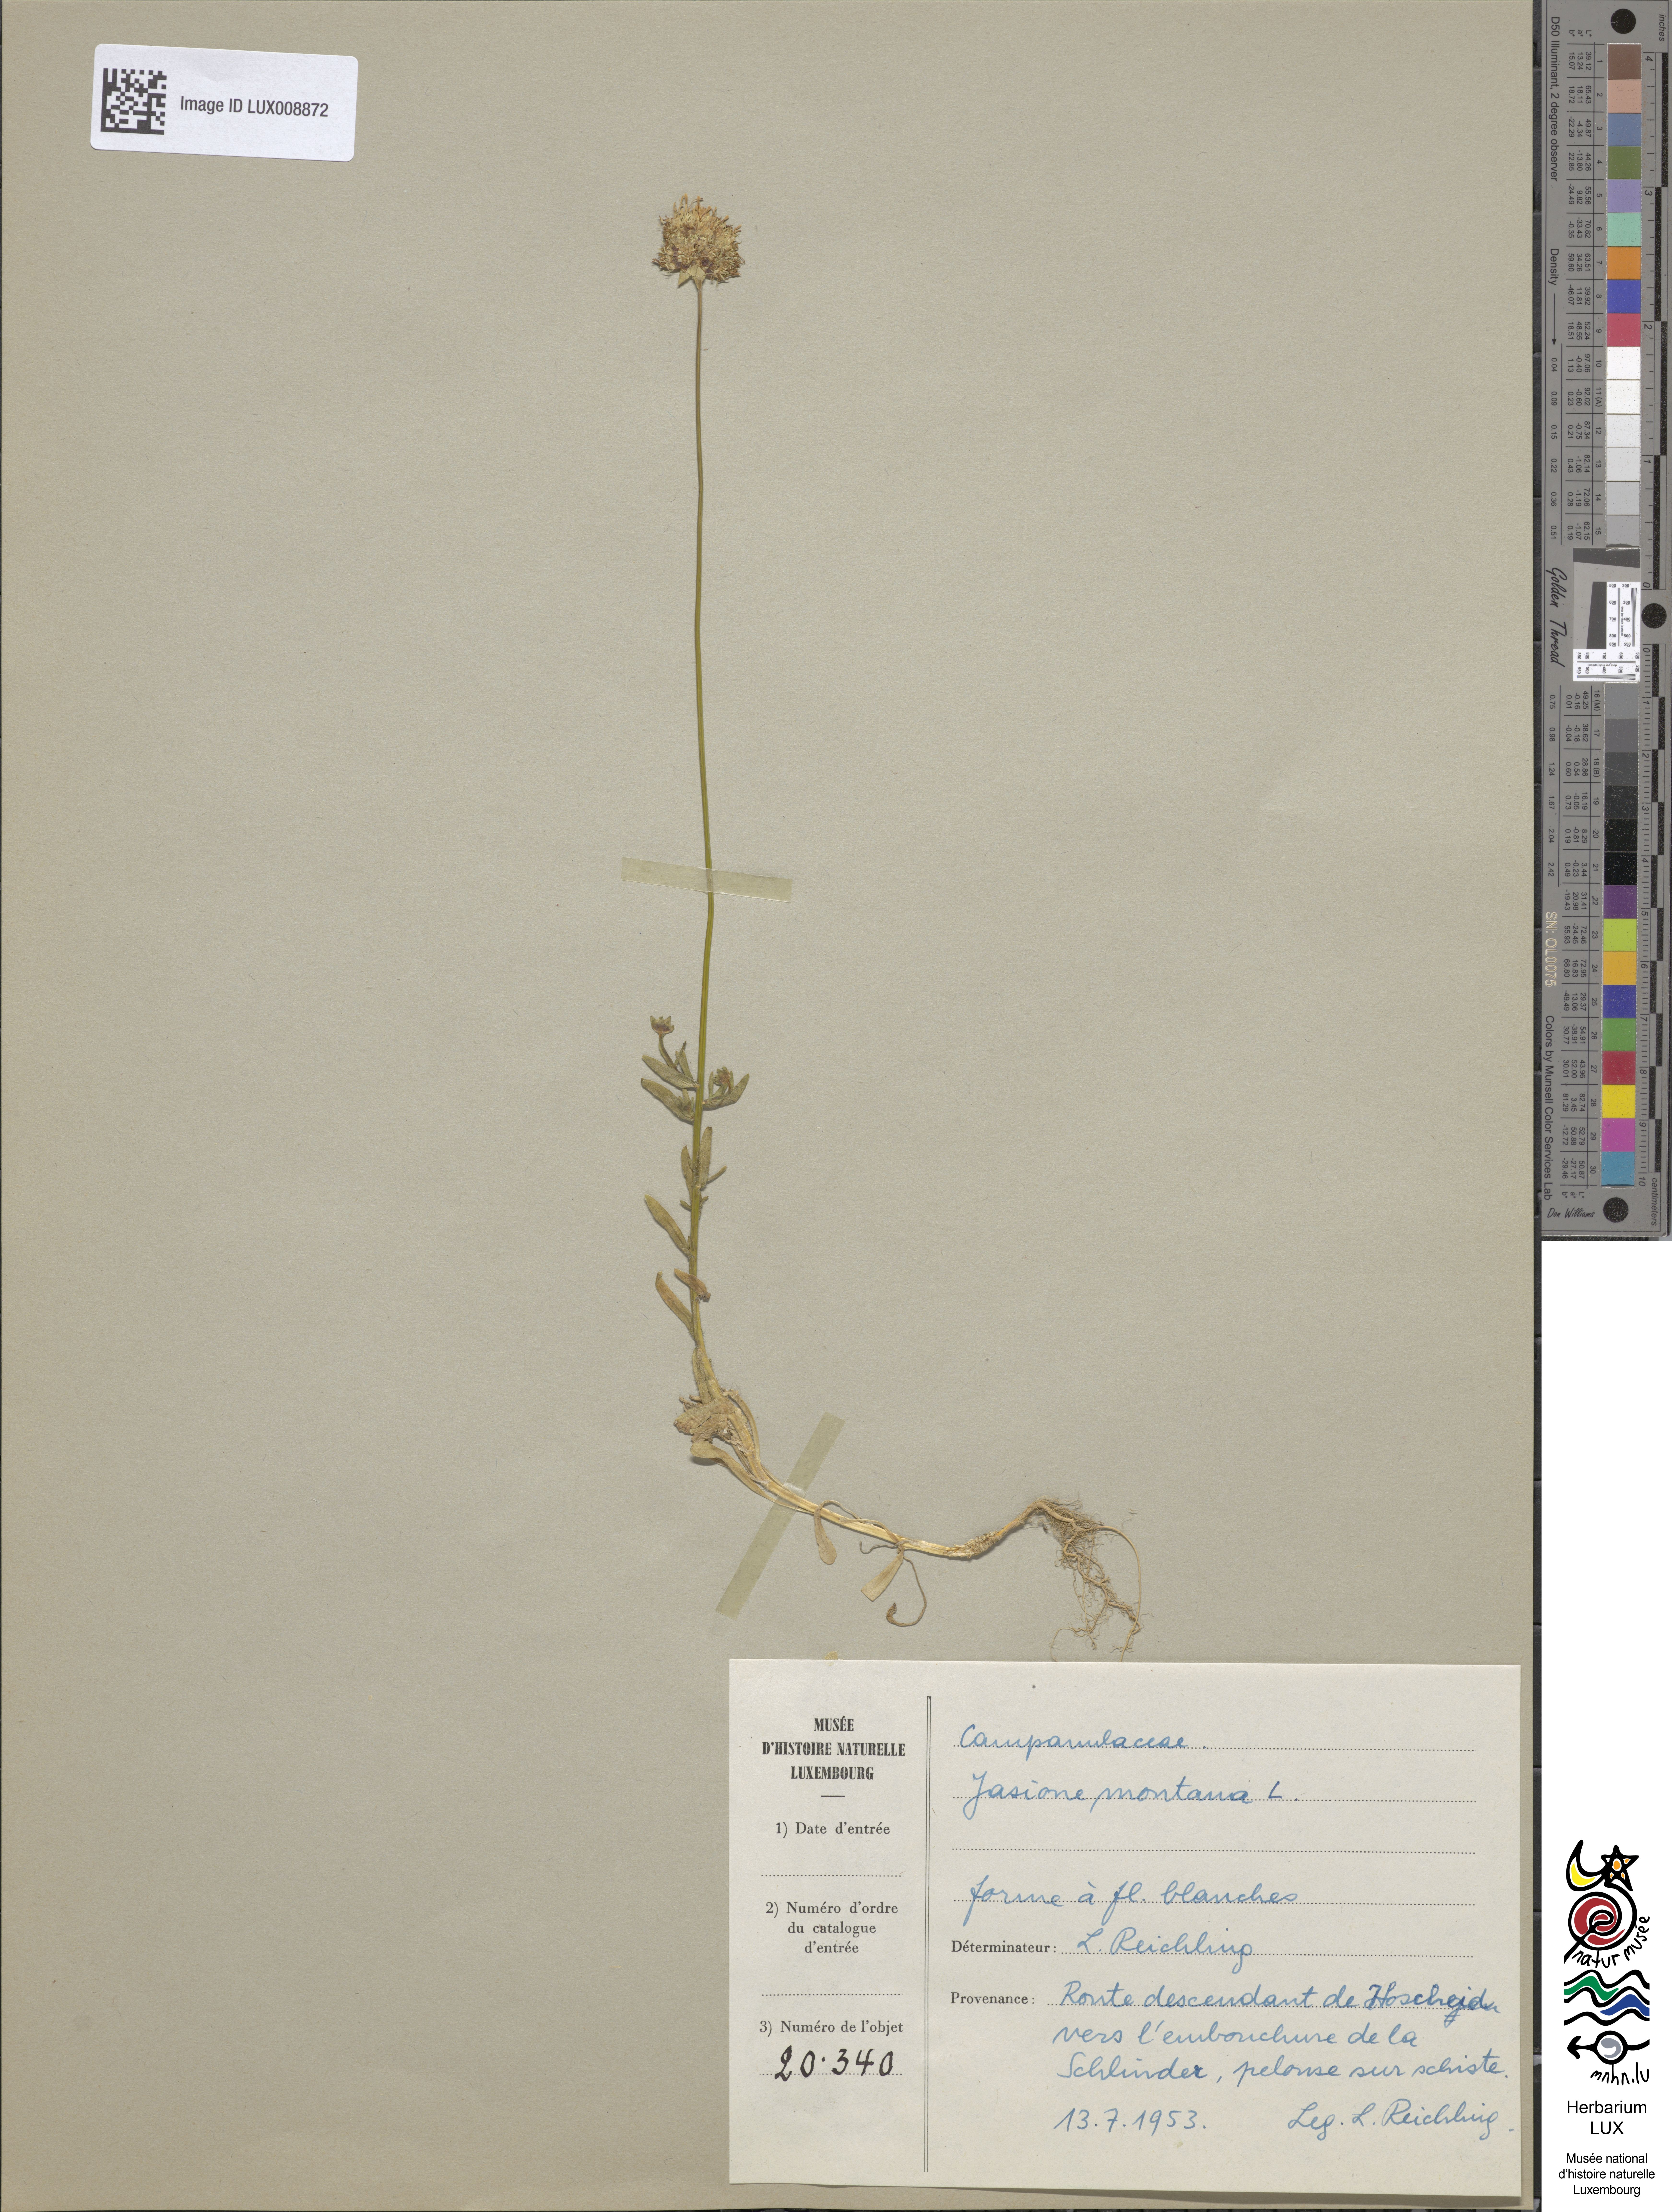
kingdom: Plantae
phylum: Tracheophyta
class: Magnoliopsida
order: Asterales
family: Campanulaceae
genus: Jasione
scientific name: Jasione montana
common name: Sheep's-bit
